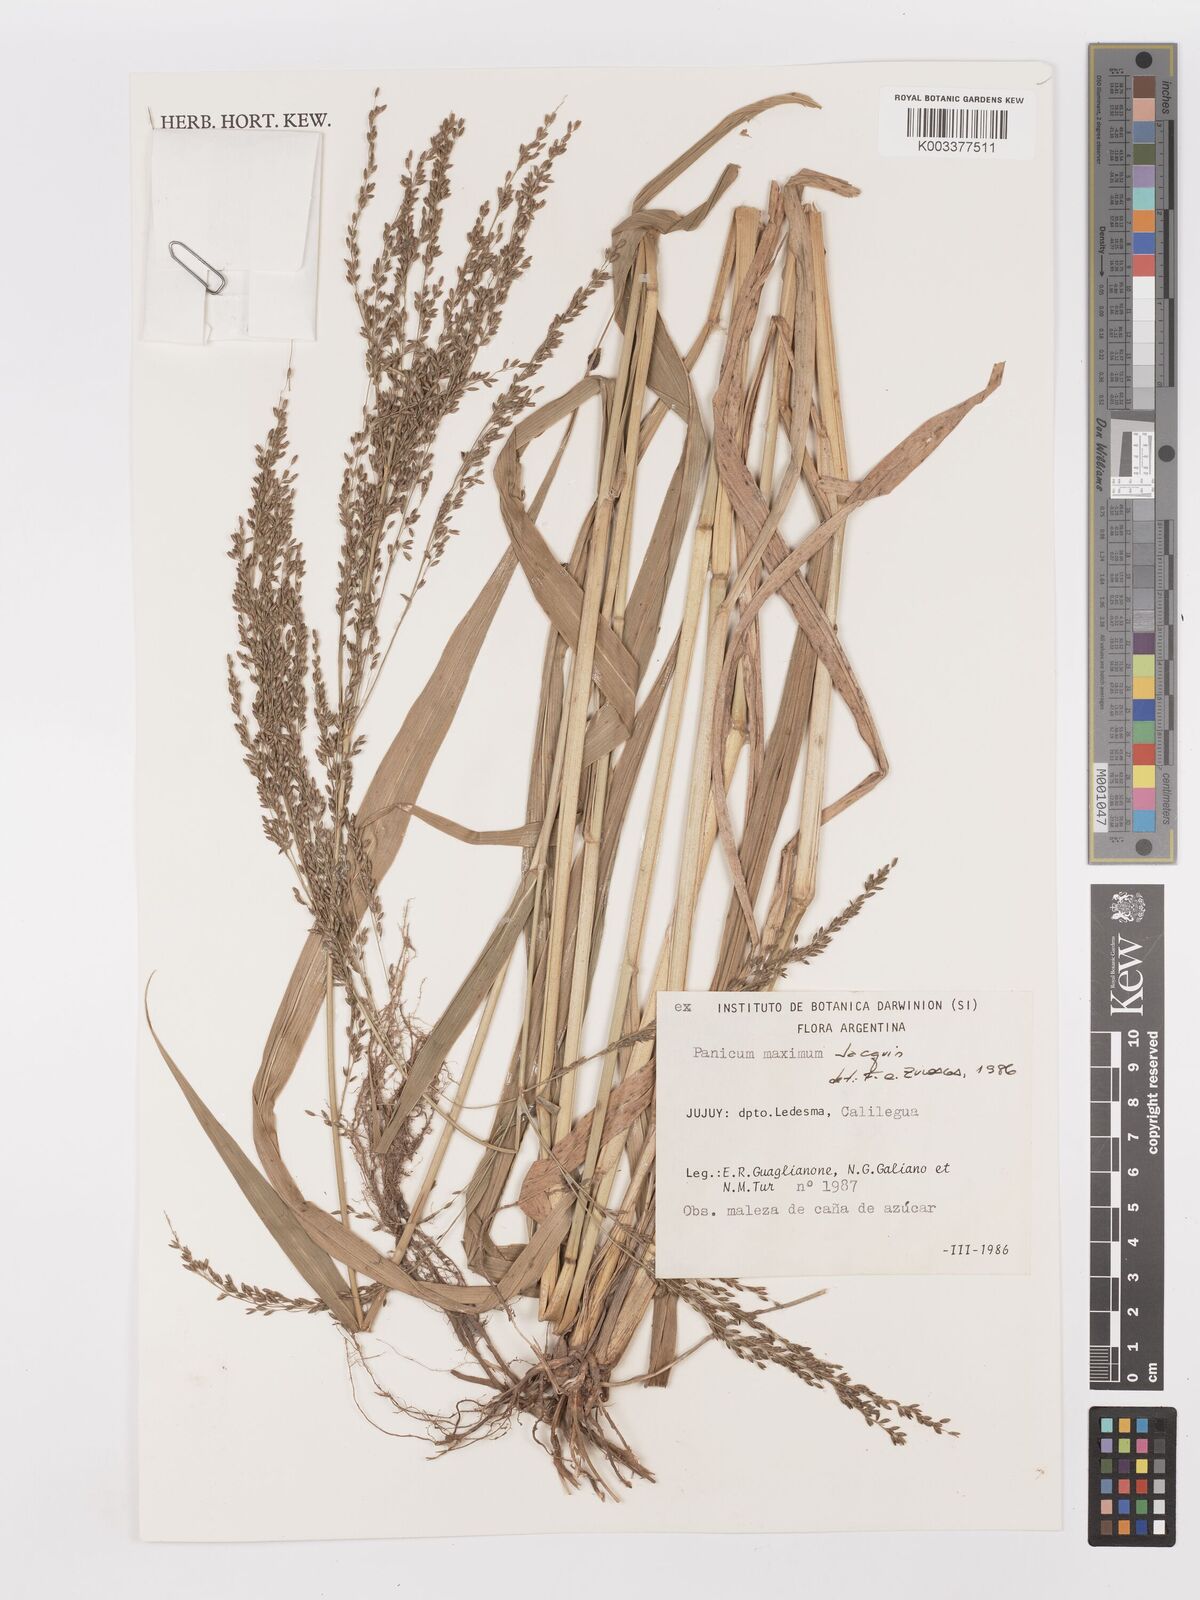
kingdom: Plantae
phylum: Tracheophyta
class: Liliopsida
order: Poales
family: Poaceae
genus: Megathyrsus
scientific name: Megathyrsus maximus
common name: Guineagrass
